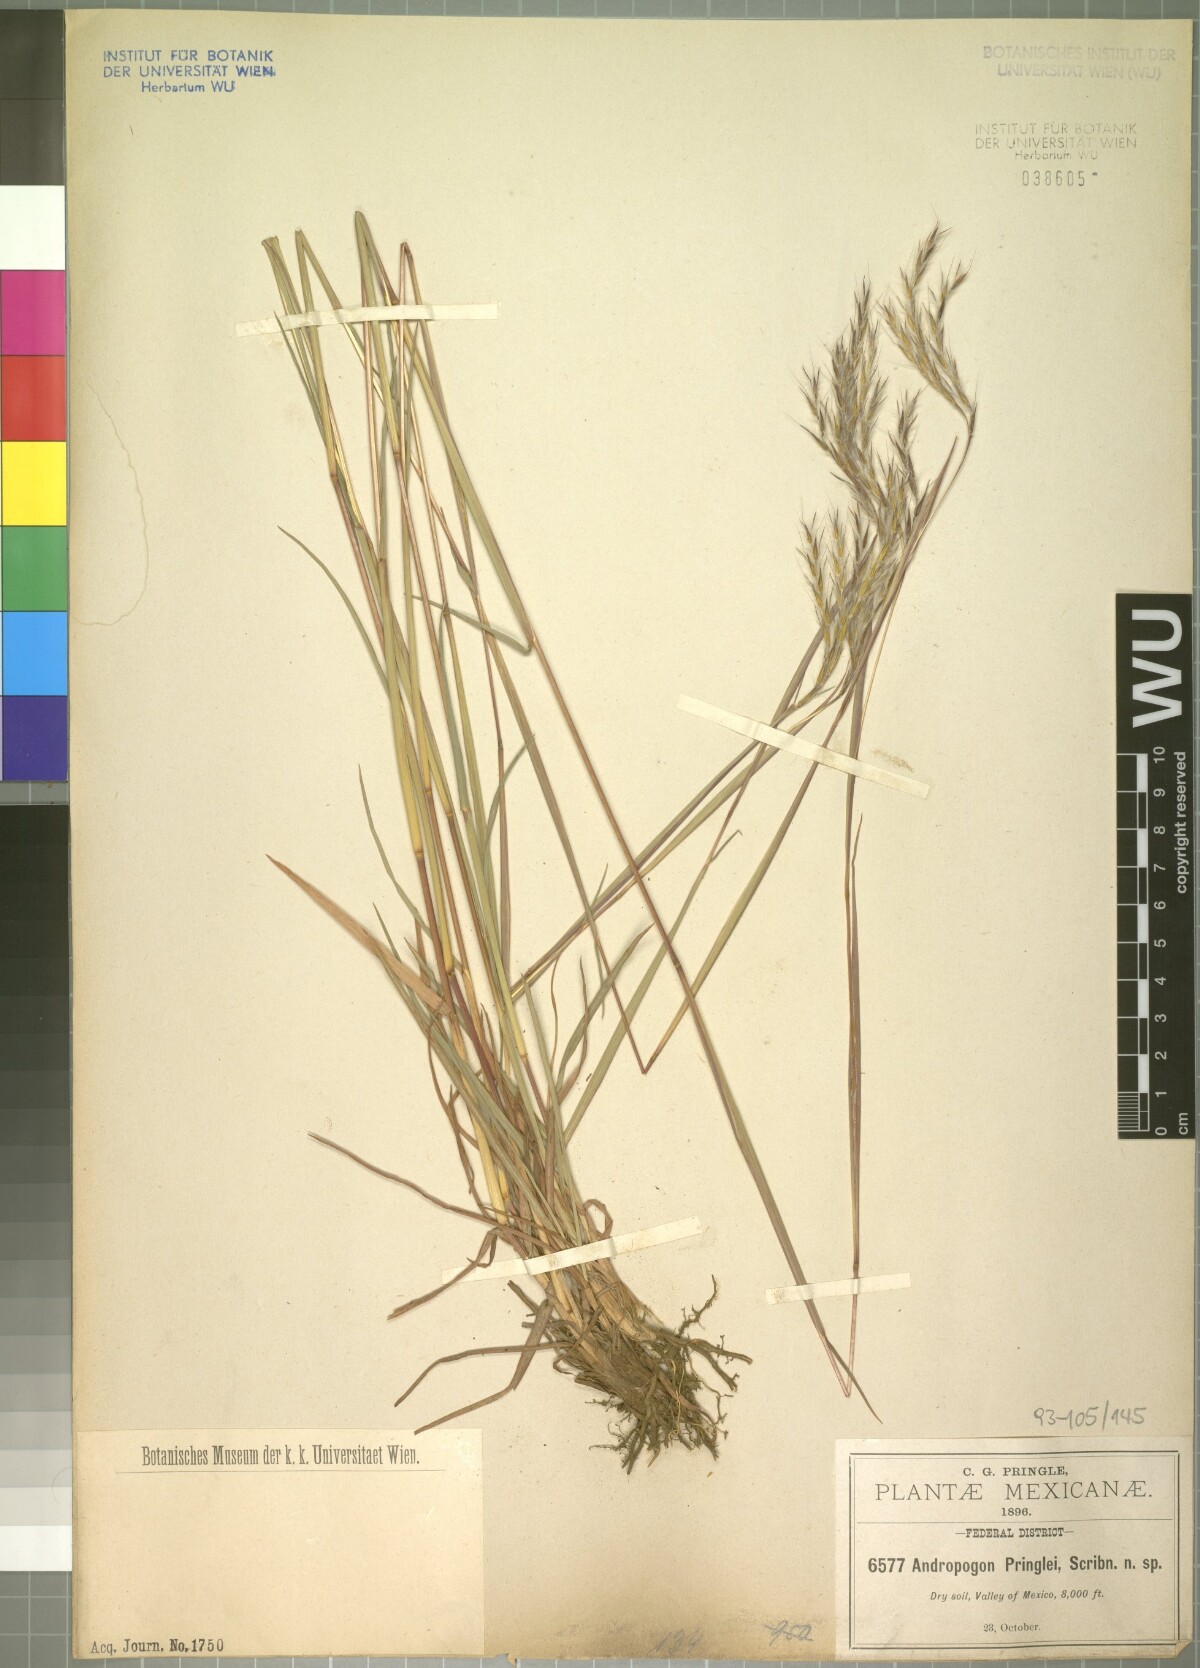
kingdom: Plantae
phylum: Tracheophyta
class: Liliopsida
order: Poales
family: Poaceae
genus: Andropogon
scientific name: Andropogon pringlei
